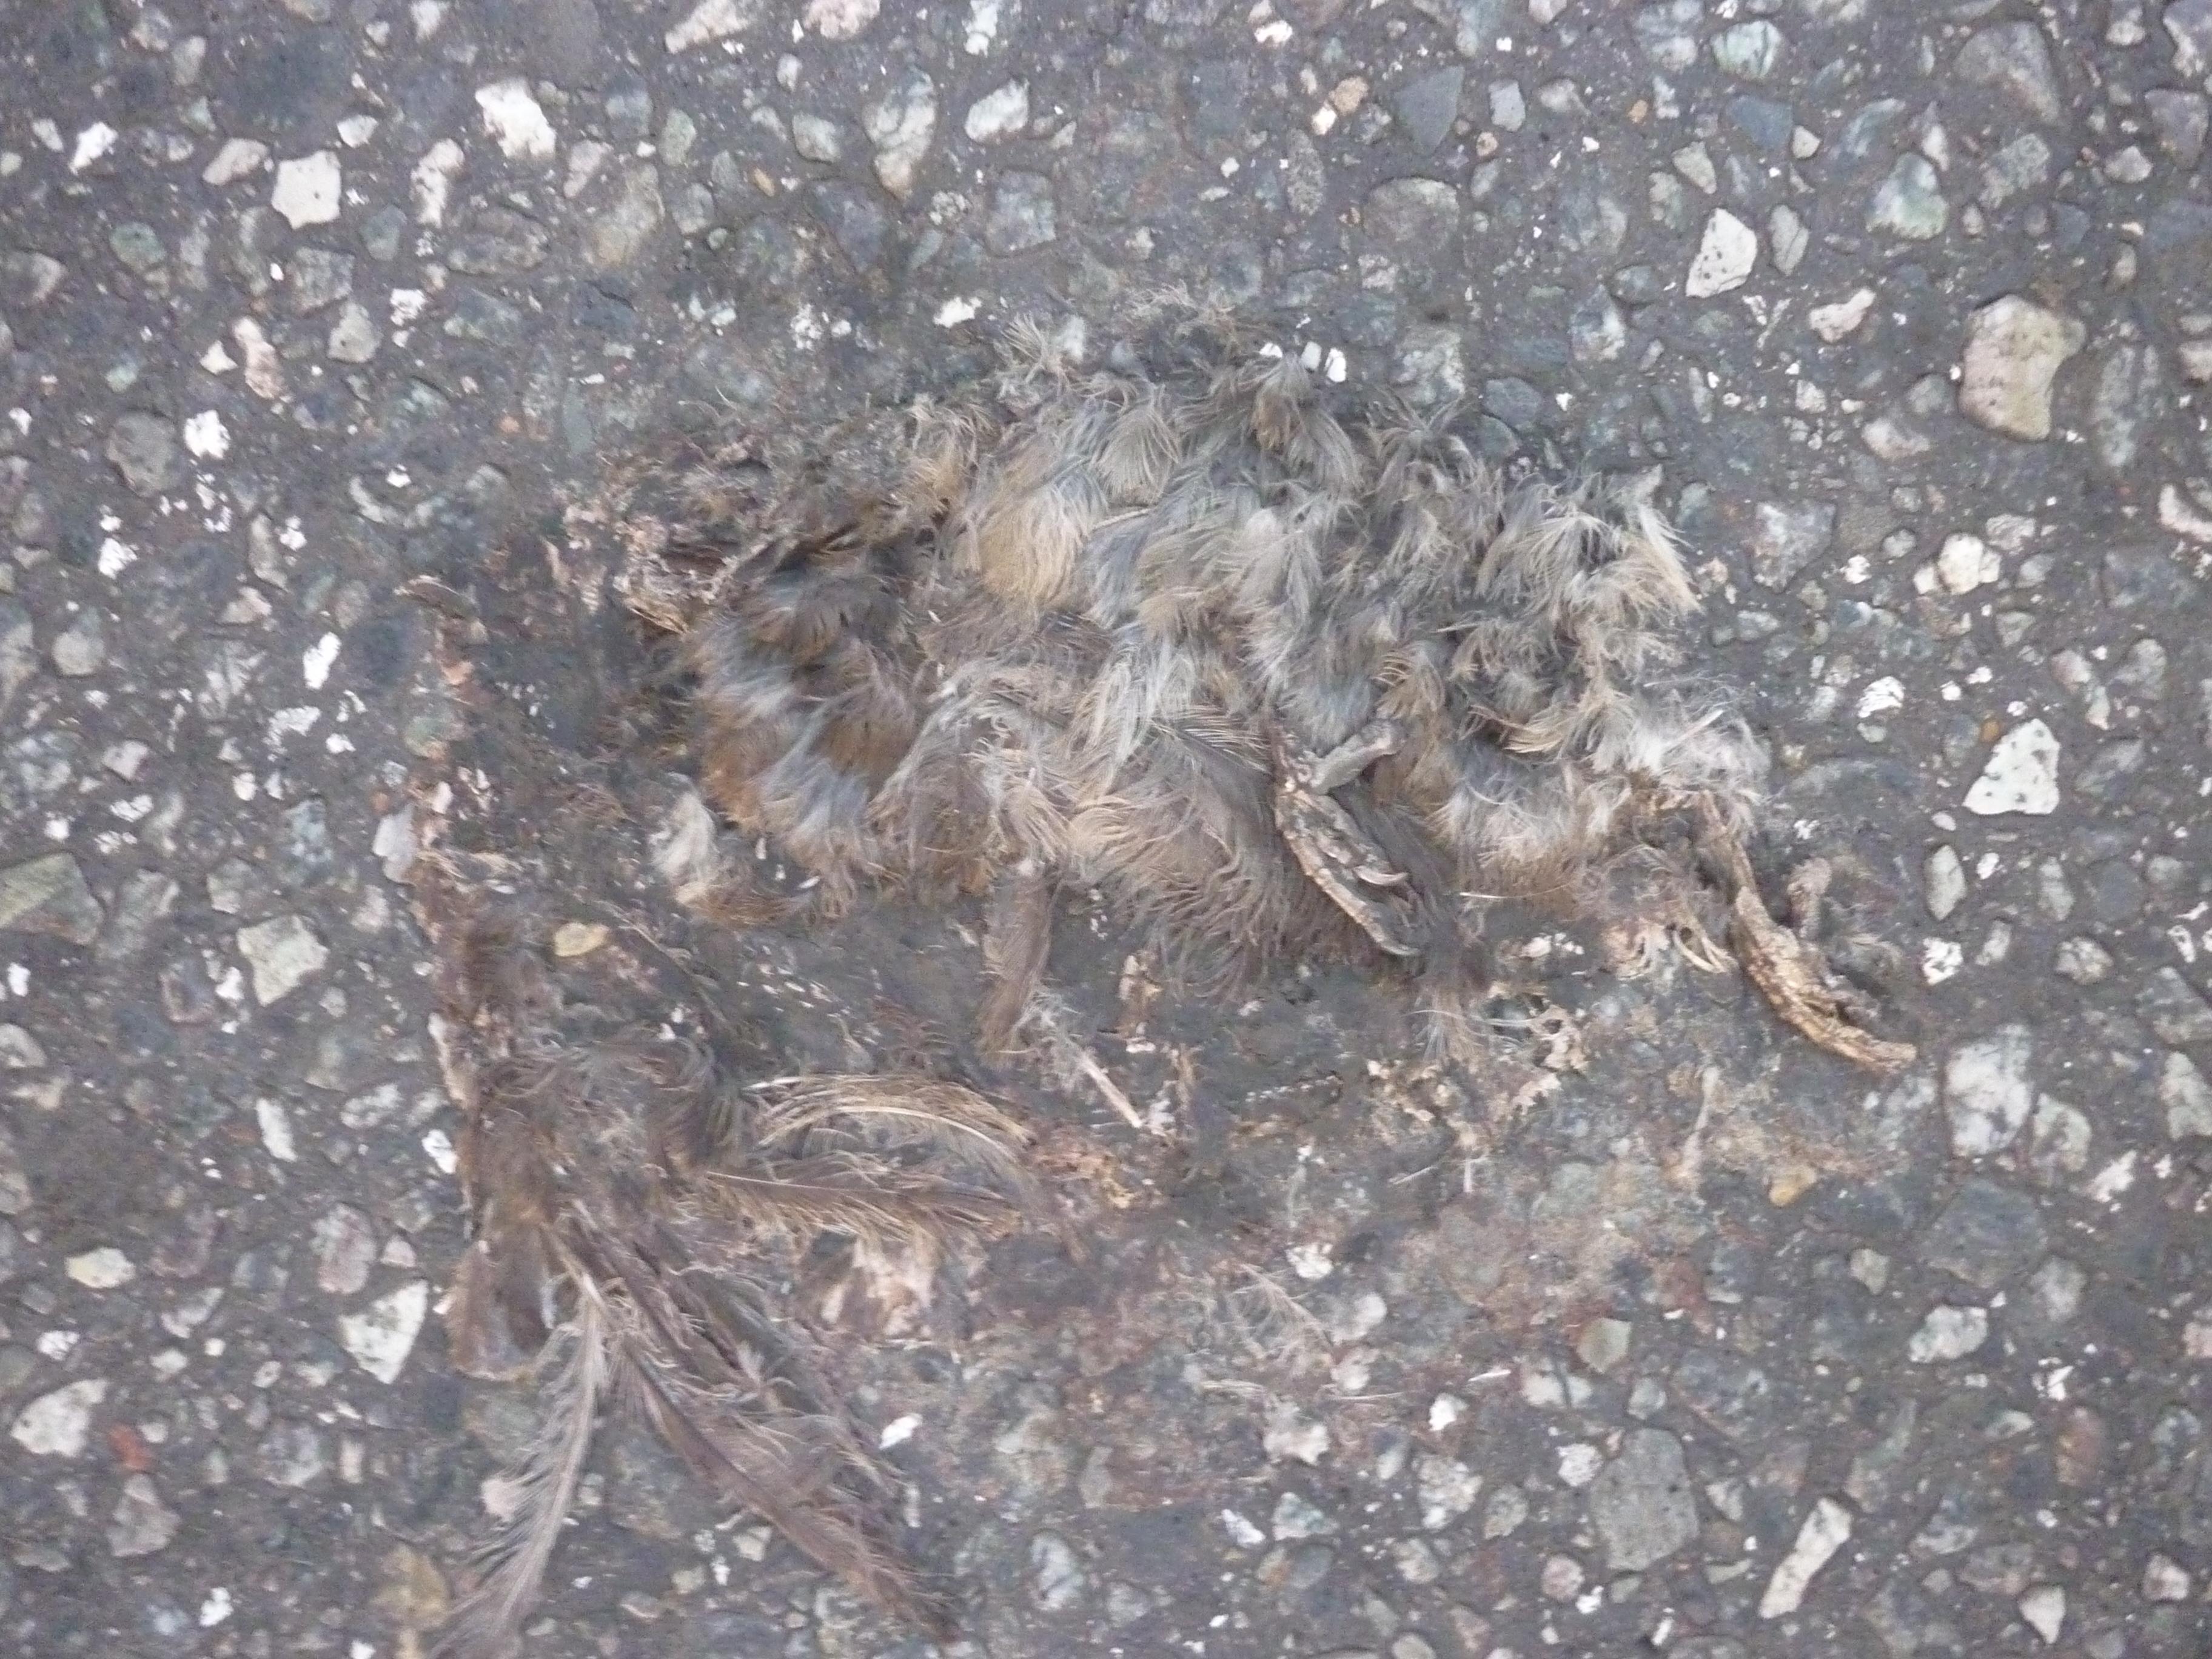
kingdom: Animalia
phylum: Chordata
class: Aves
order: Passeriformes
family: Passeridae
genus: Passer
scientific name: Passer domesticus
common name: House sparrow
